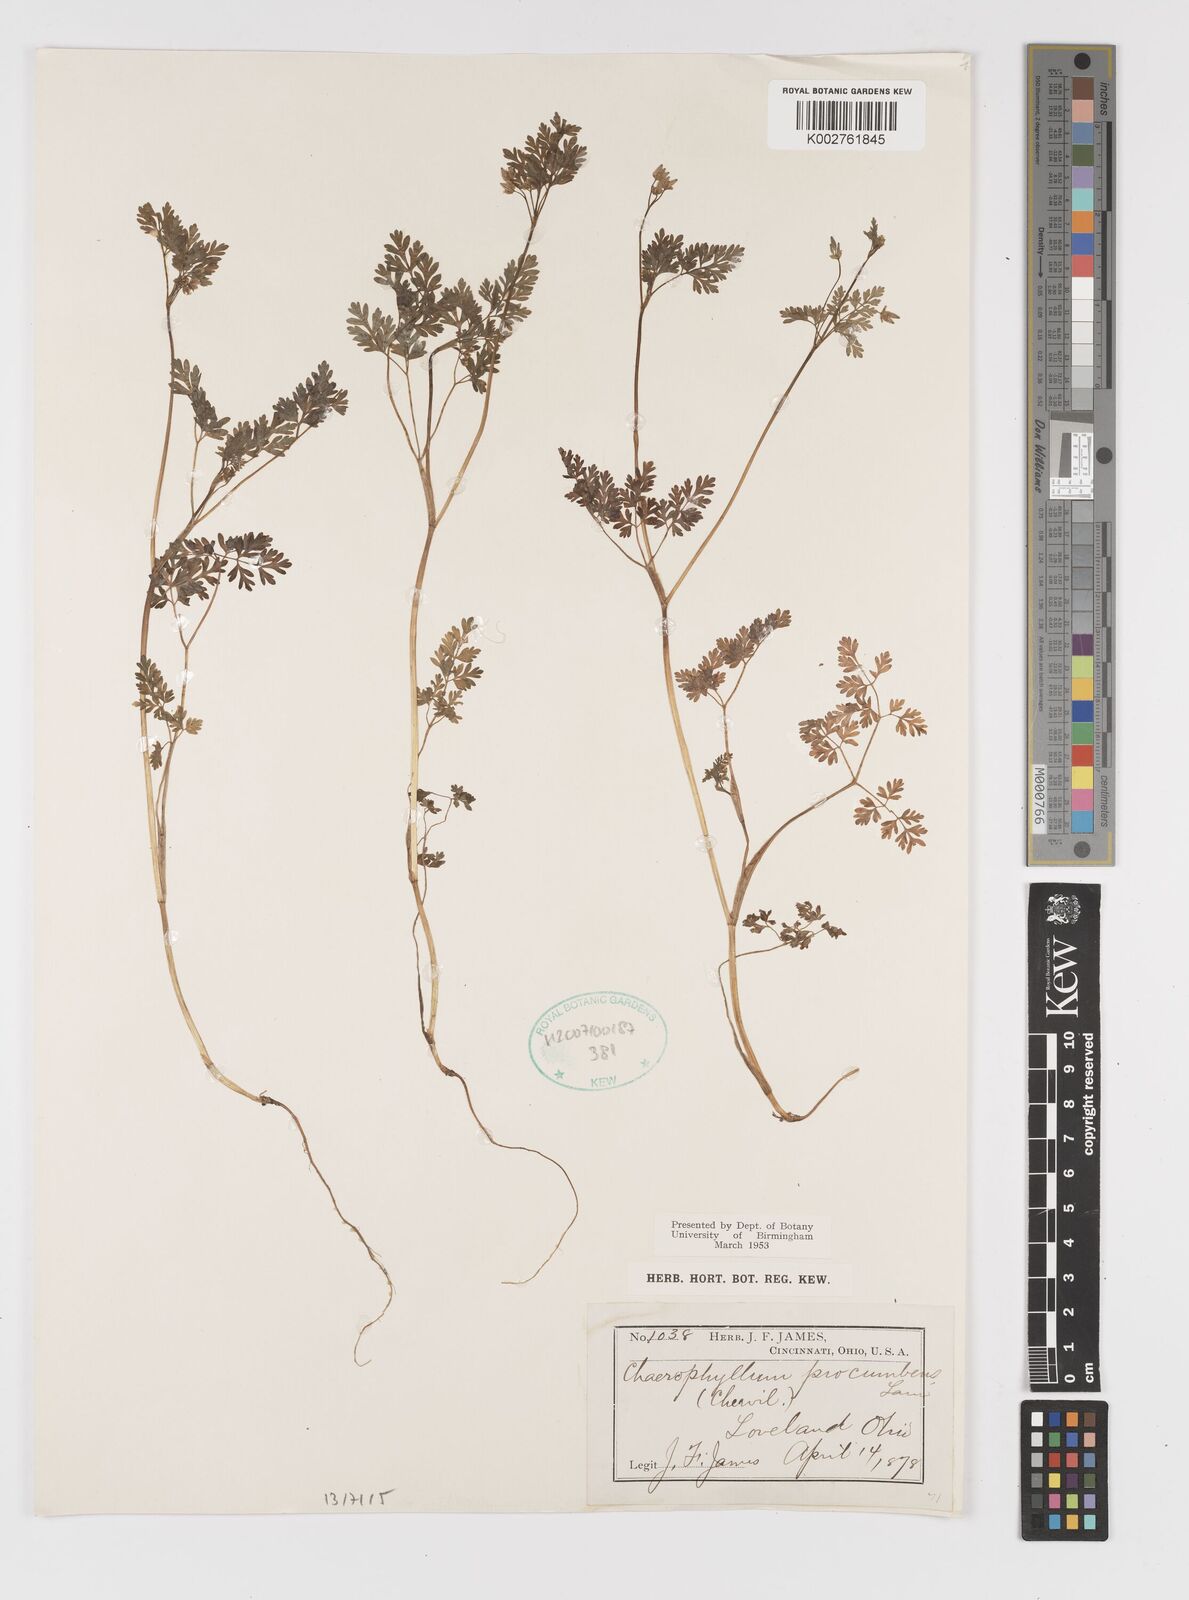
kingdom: Plantae
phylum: Tracheophyta
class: Magnoliopsida
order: Apiales
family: Apiaceae
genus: Chaerophyllum
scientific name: Chaerophyllum procumbens
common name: Spreading chervil
